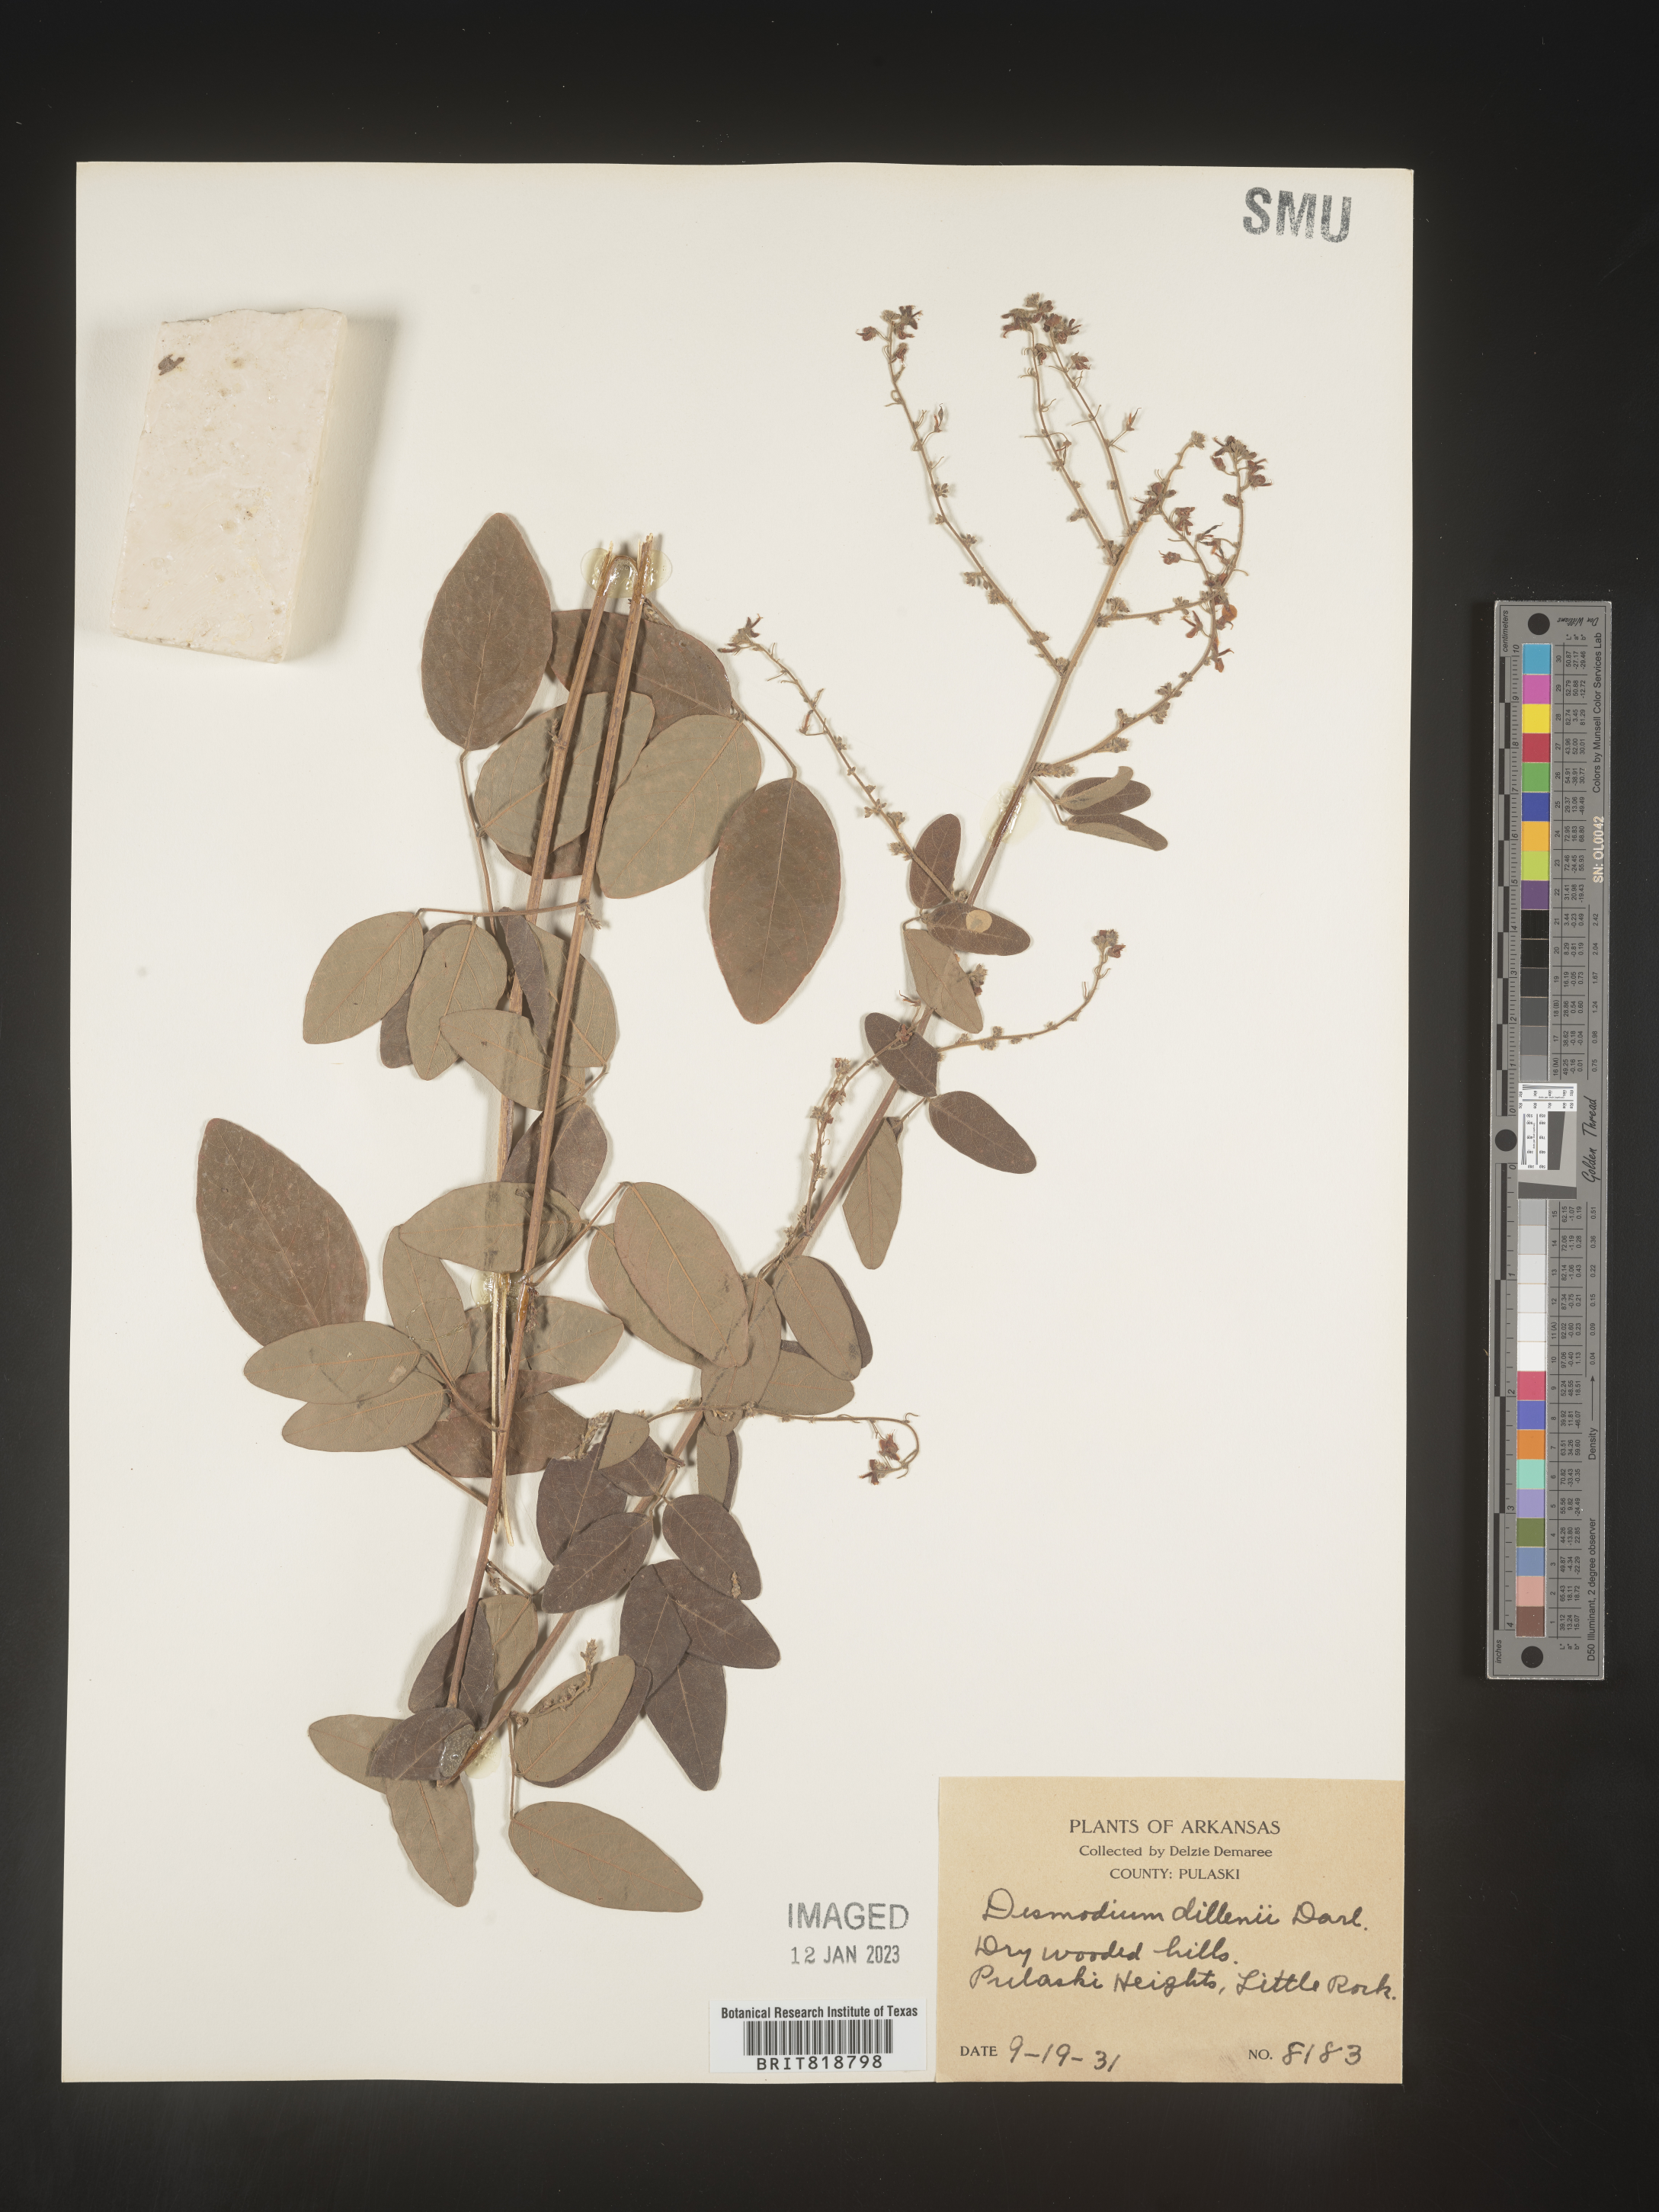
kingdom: Plantae
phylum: Tracheophyta
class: Magnoliopsida
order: Fabales
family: Fabaceae
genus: Desmodium
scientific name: Desmodium perplexum
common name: Perplexed tick trefoil
